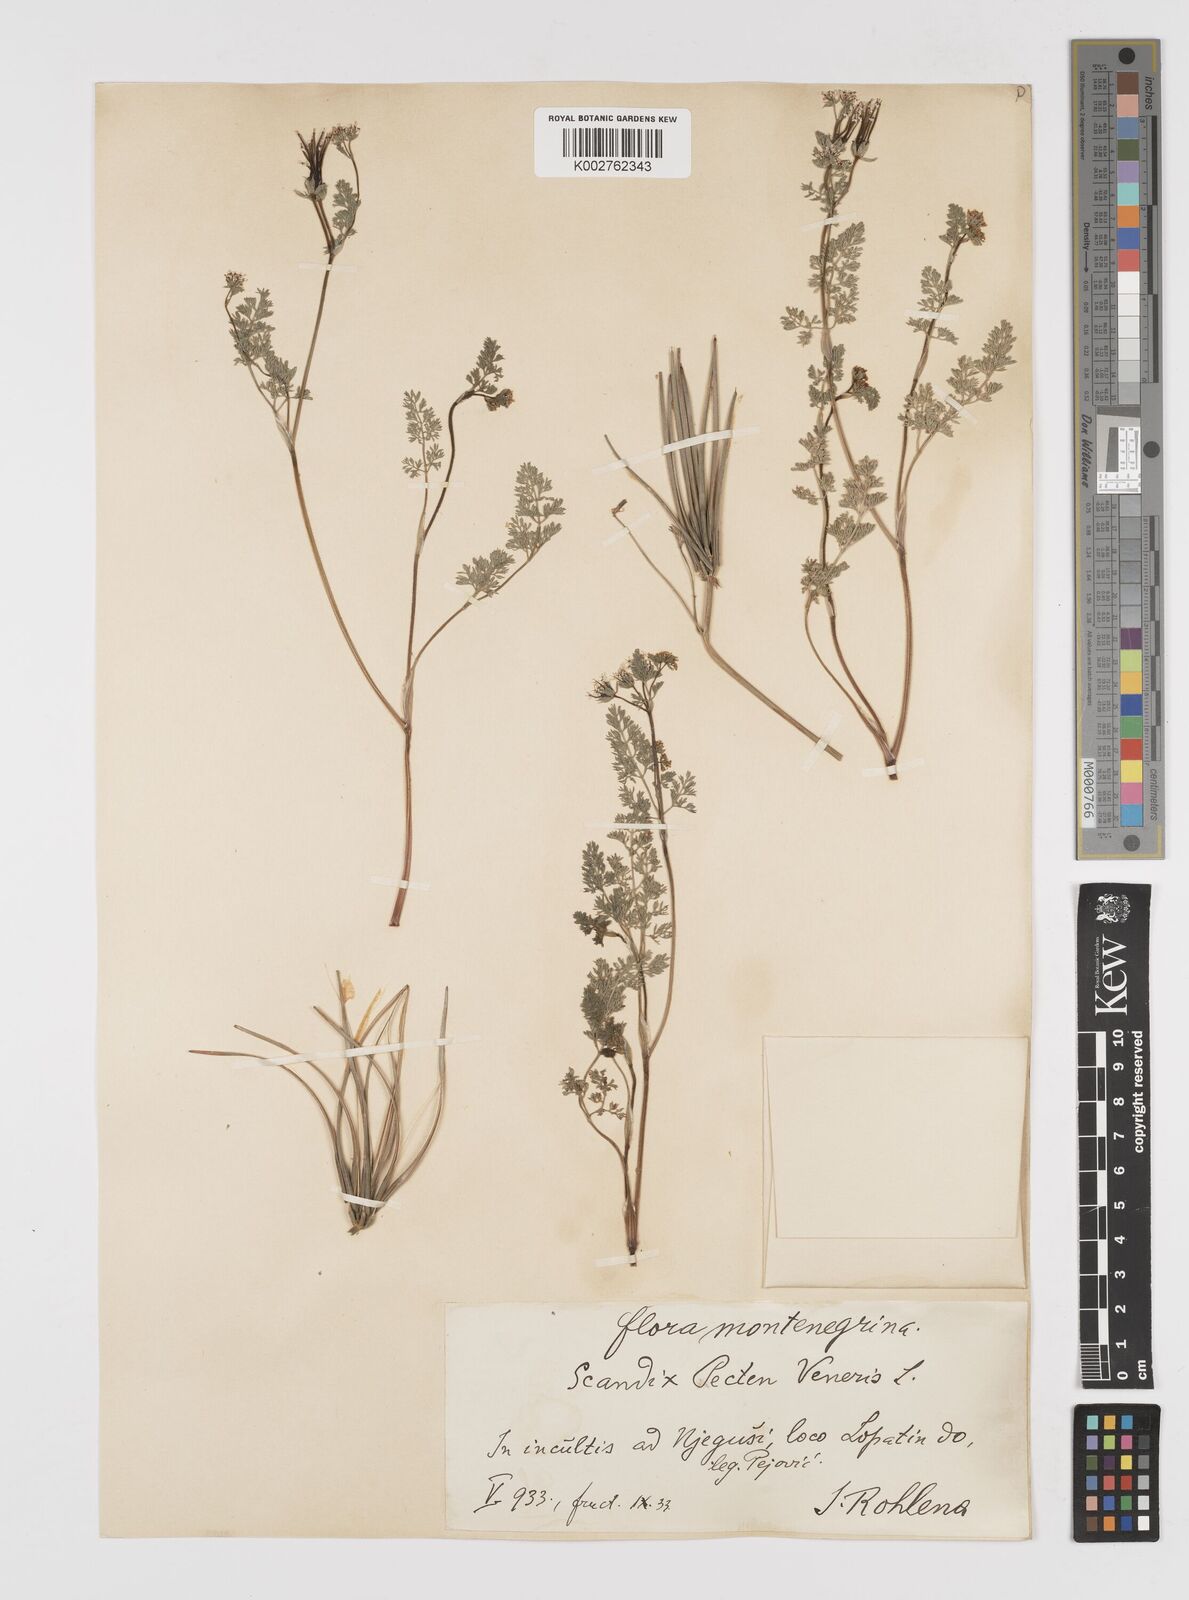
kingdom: Plantae
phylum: Tracheophyta
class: Magnoliopsida
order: Apiales
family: Apiaceae
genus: Scandix
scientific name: Scandix pecten-veneris
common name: Shepherd's-needle
